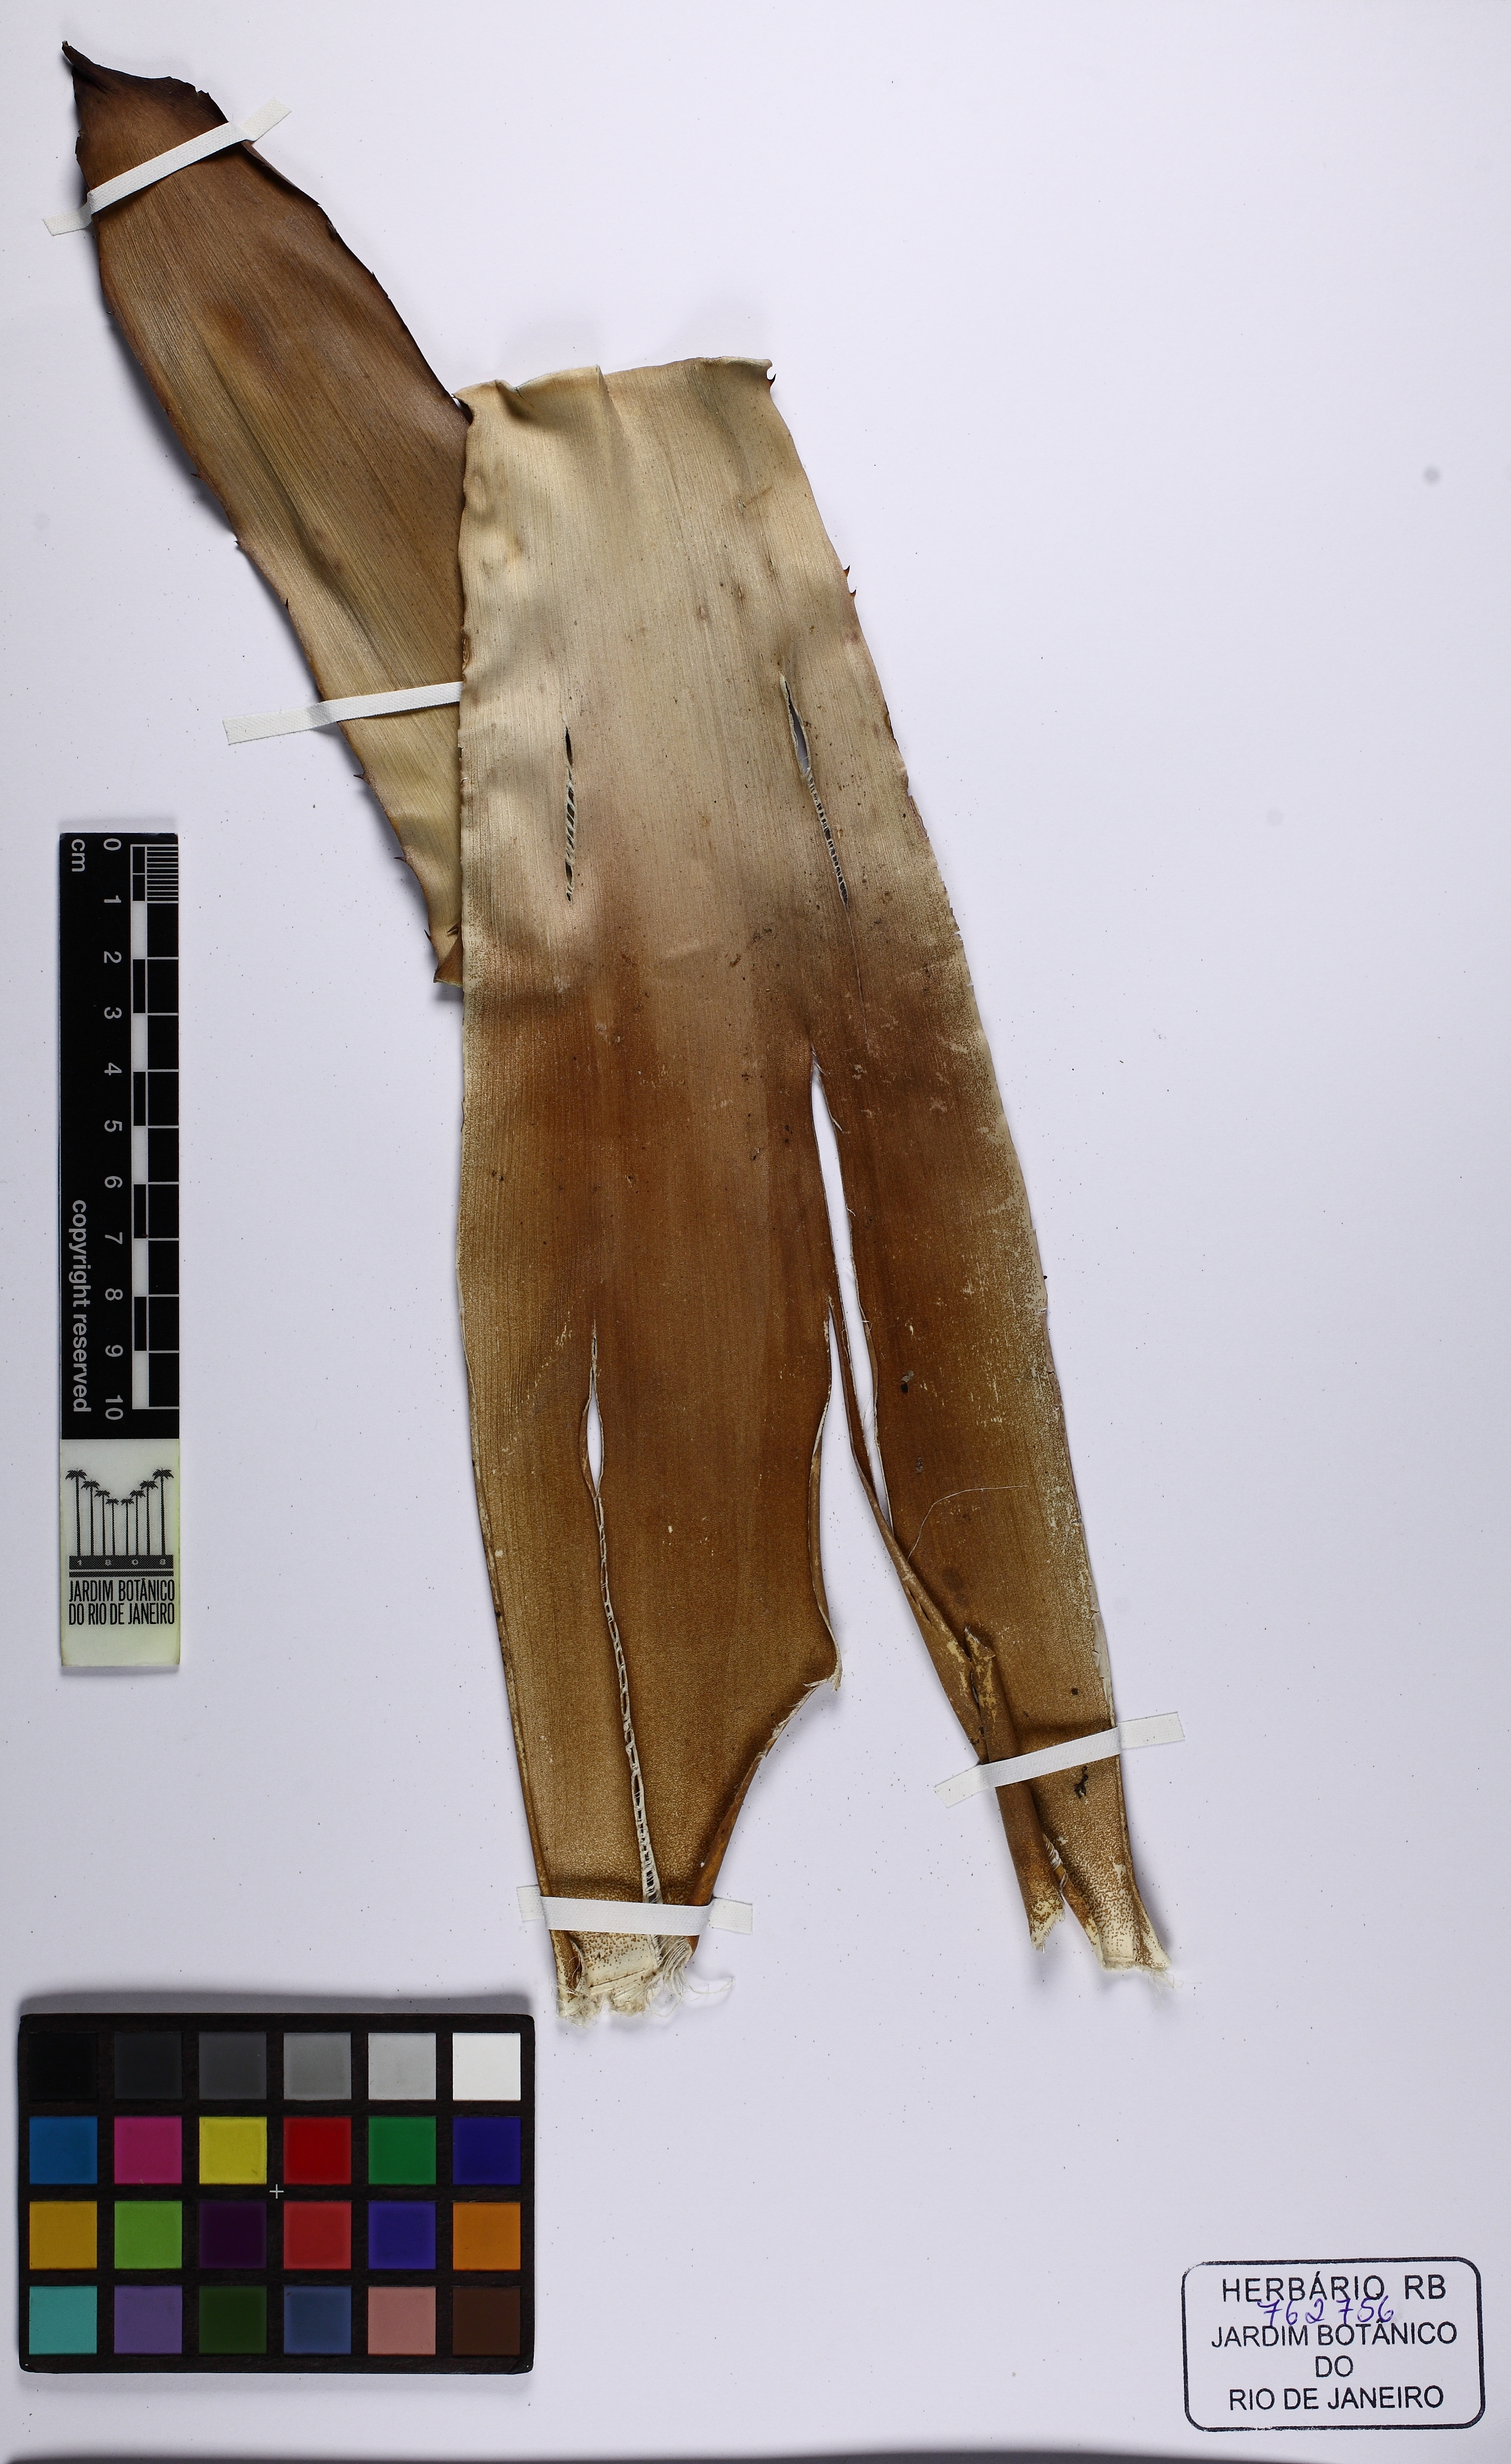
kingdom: Plantae
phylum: Tracheophyta
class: Liliopsida
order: Poales
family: Bromeliaceae
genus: Aechmea
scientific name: Aechmea aquilega
